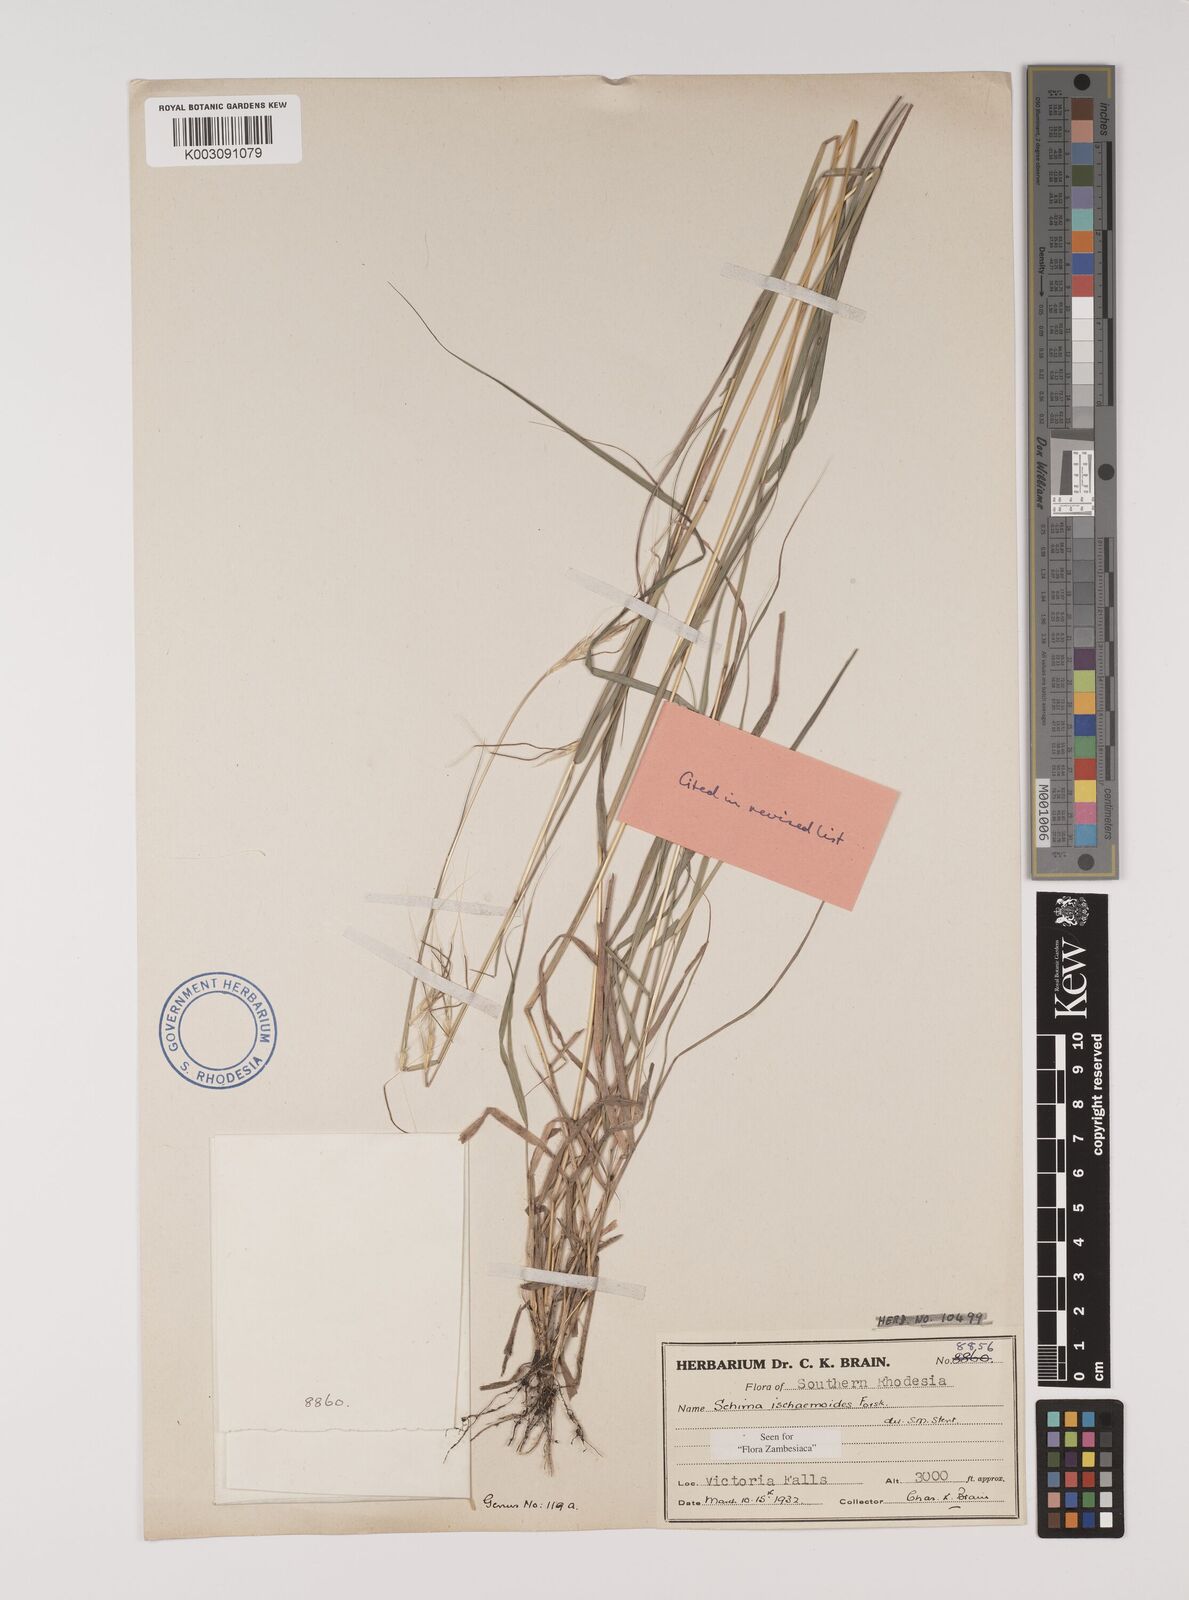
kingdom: Plantae
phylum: Tracheophyta
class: Liliopsida
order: Poales
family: Poaceae
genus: Sehima
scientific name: Sehima ischaemoides
